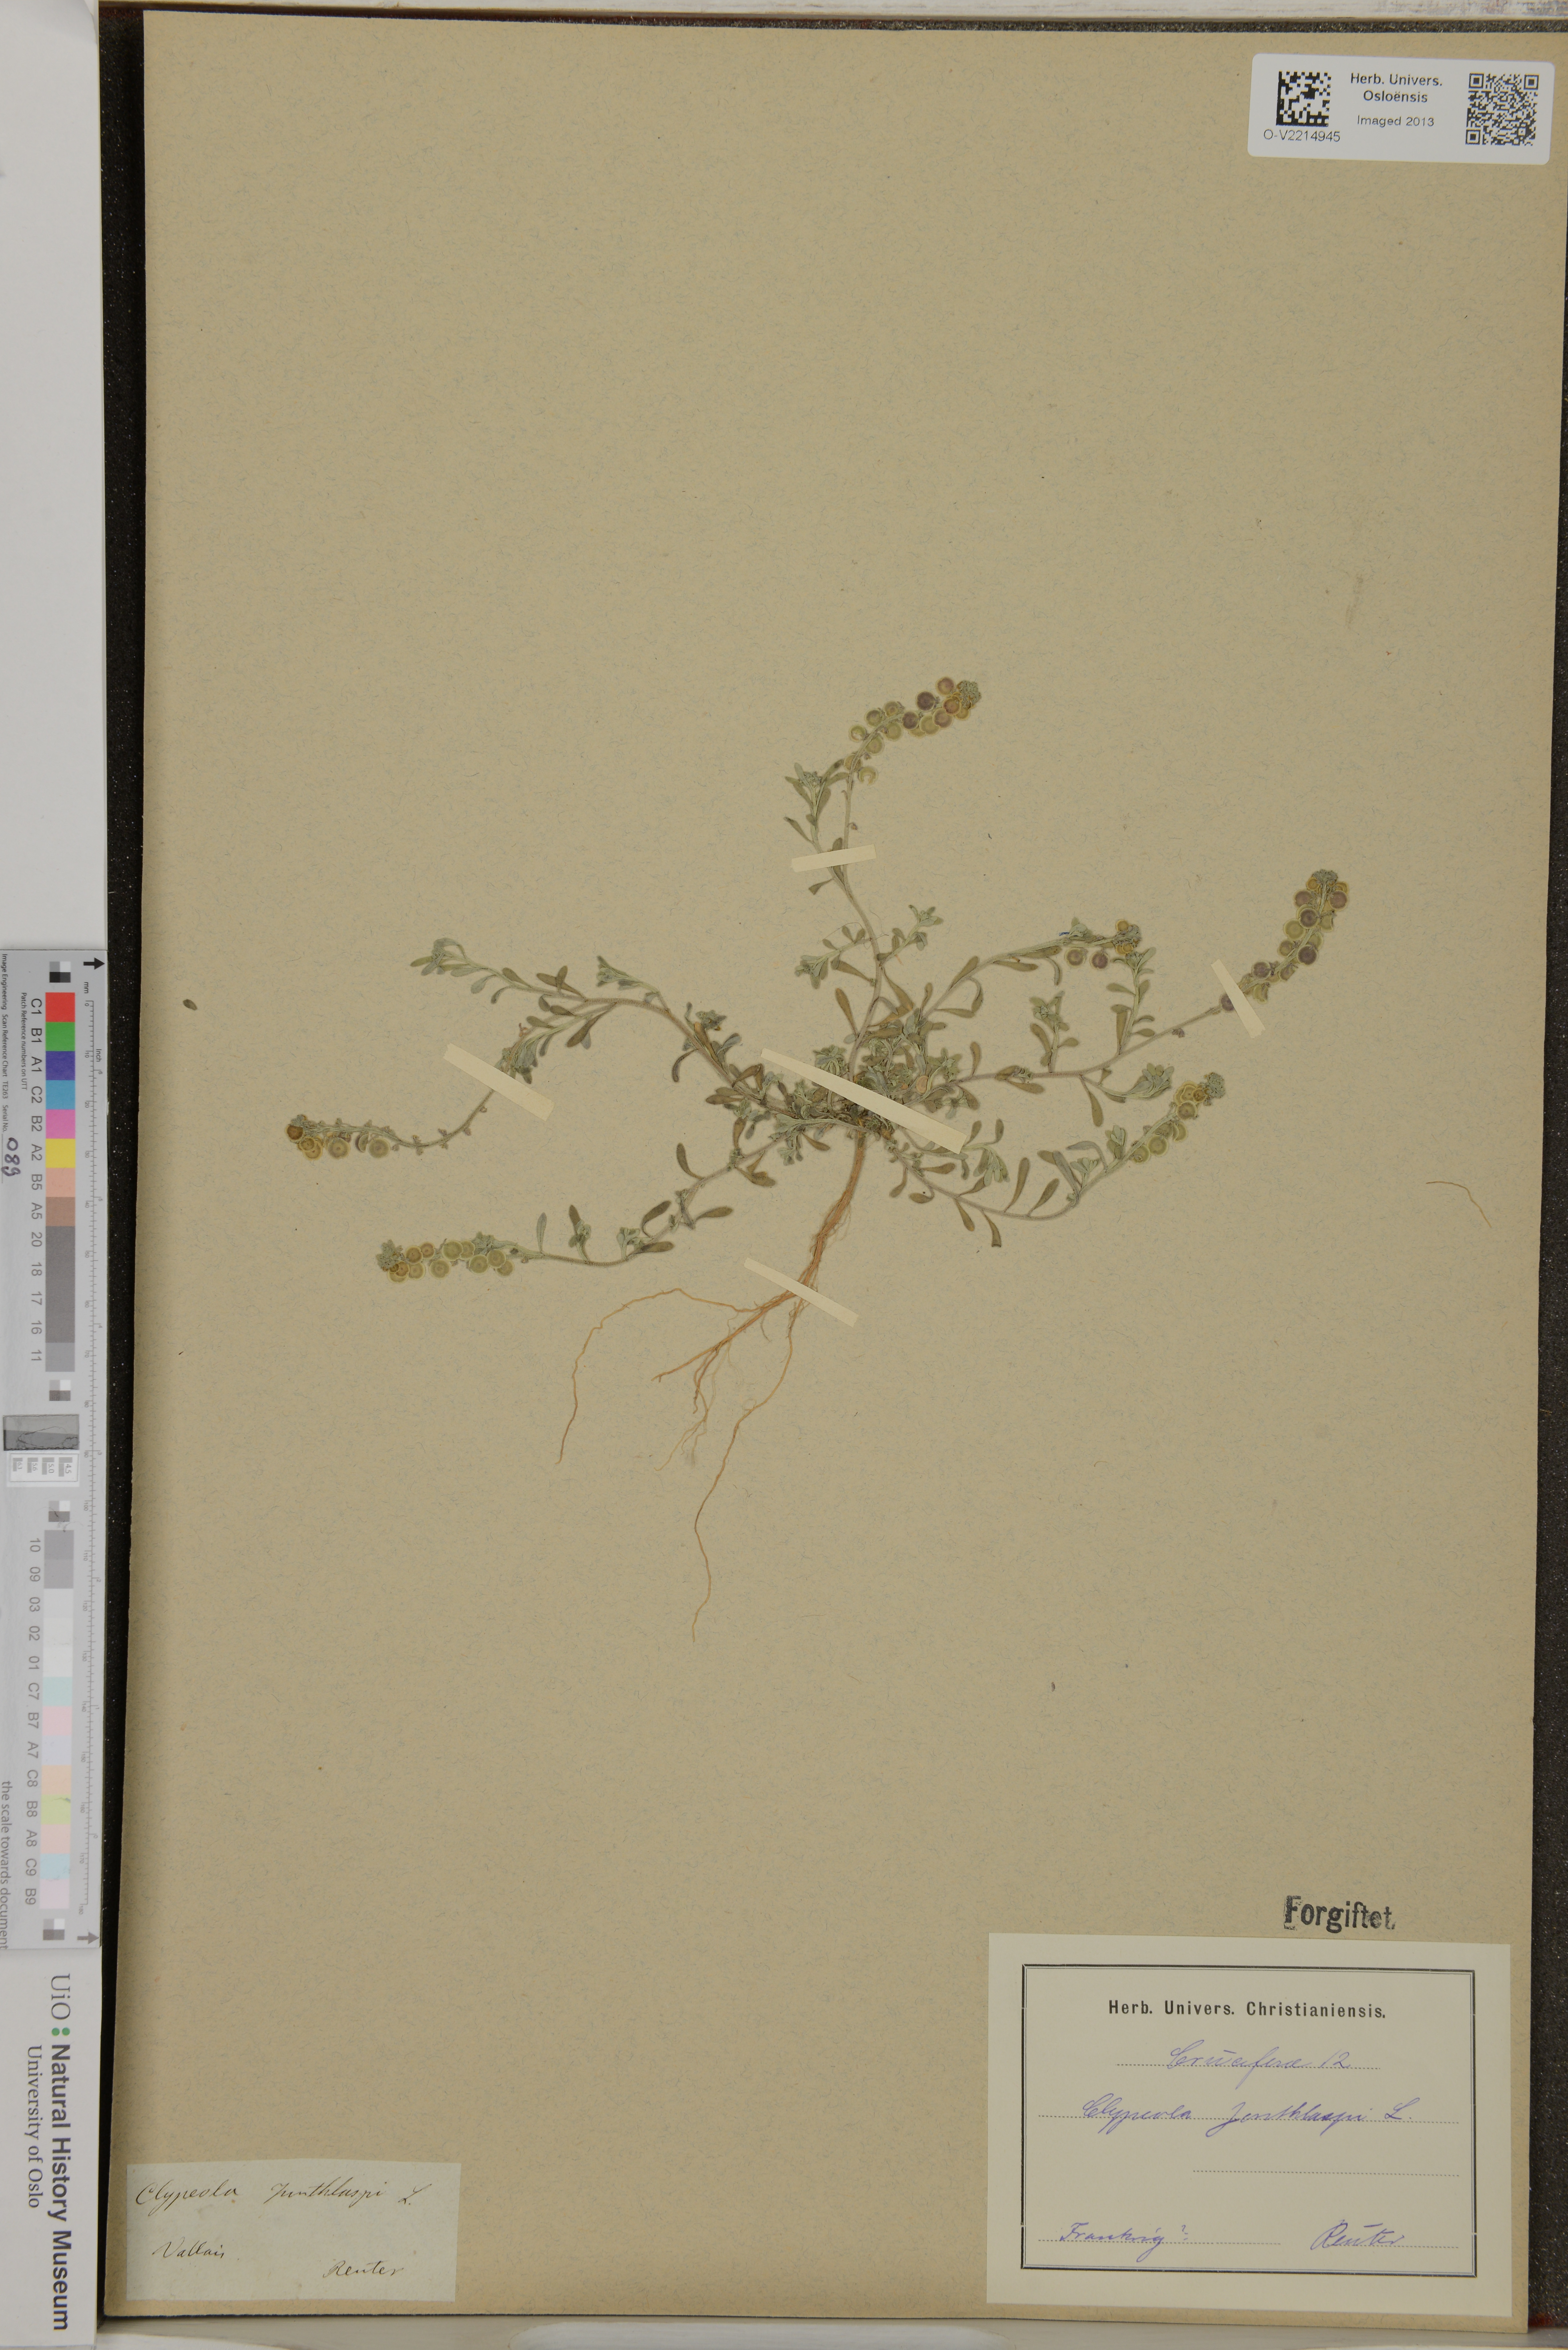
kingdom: Plantae
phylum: Tracheophyta
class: Magnoliopsida
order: Brassicales
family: Brassicaceae
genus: Clypeola
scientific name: Clypeola jonthlaspi
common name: Disk cress
